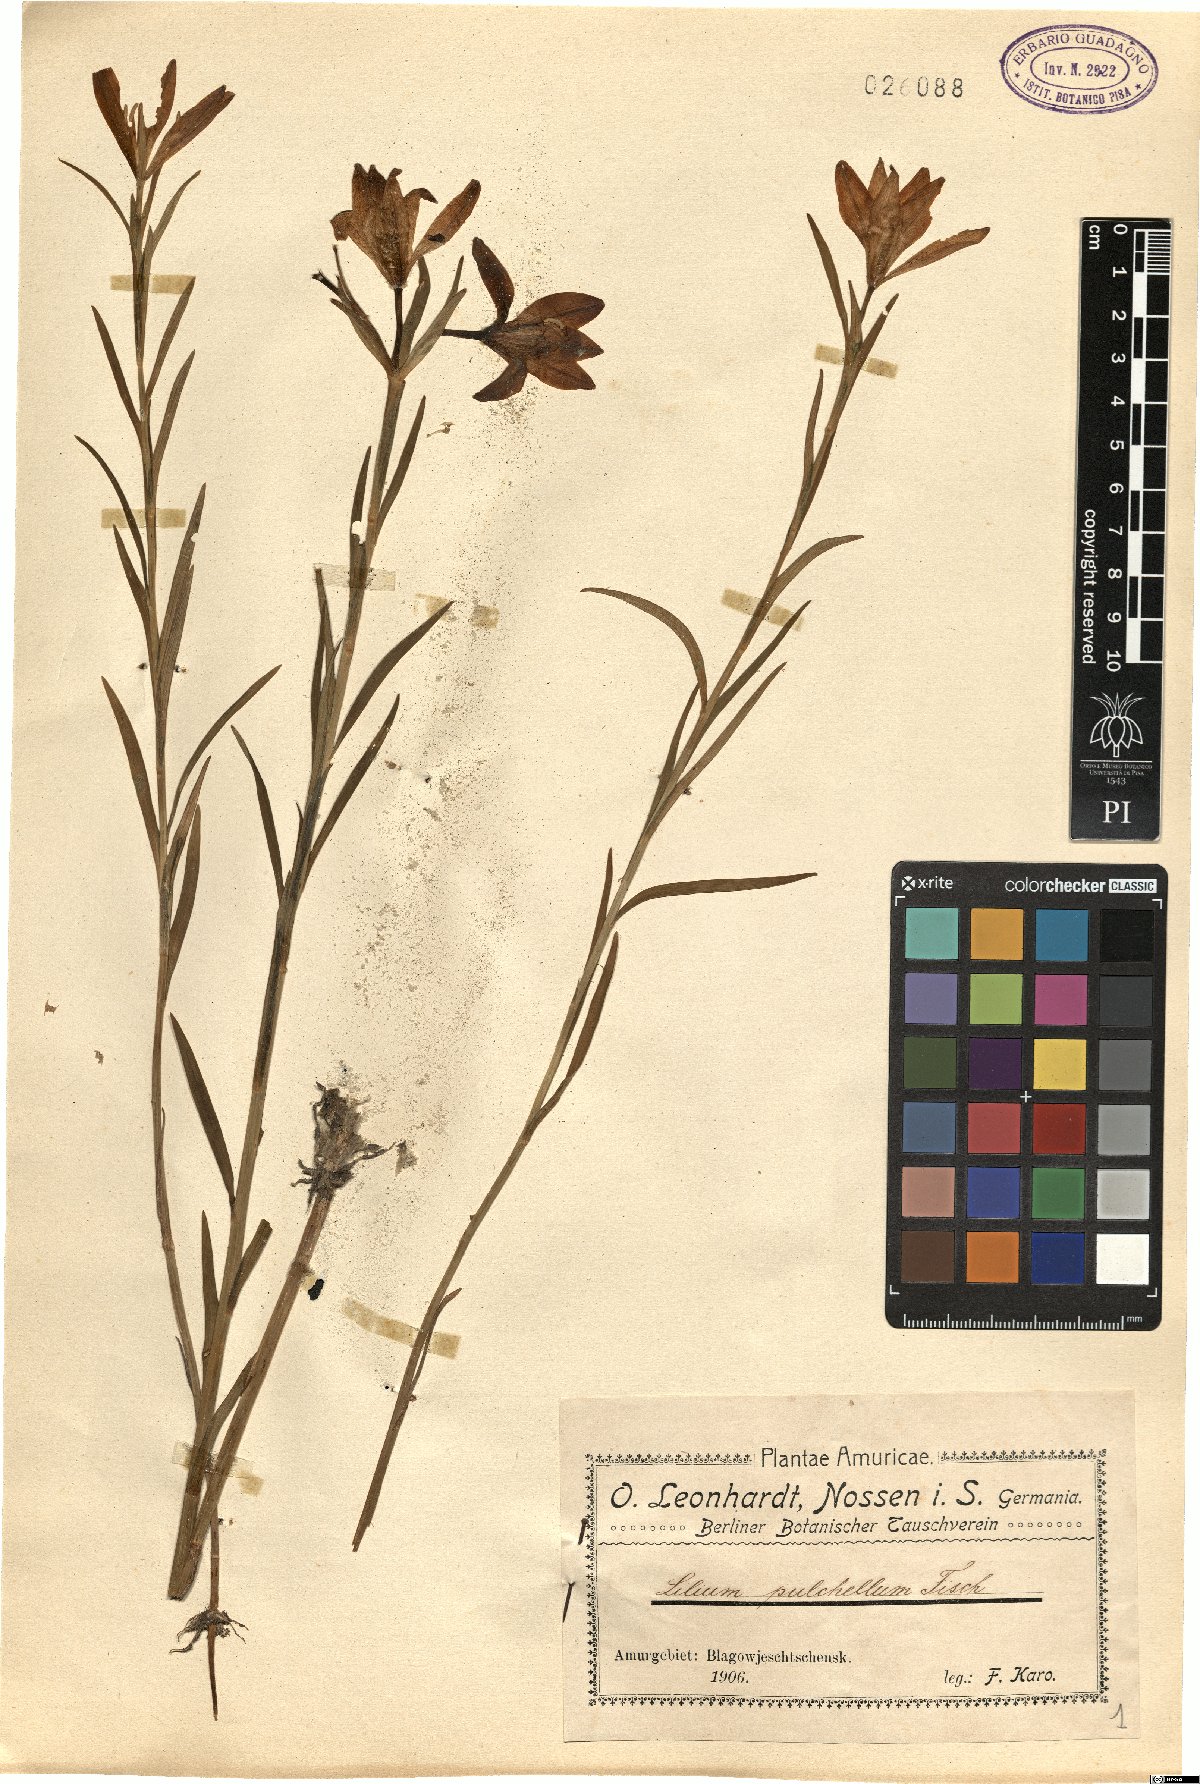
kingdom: Plantae
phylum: Tracheophyta
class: Liliopsida
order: Liliales
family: Liliaceae
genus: Lilium
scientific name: Lilium concolor
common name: Morning-star lily
